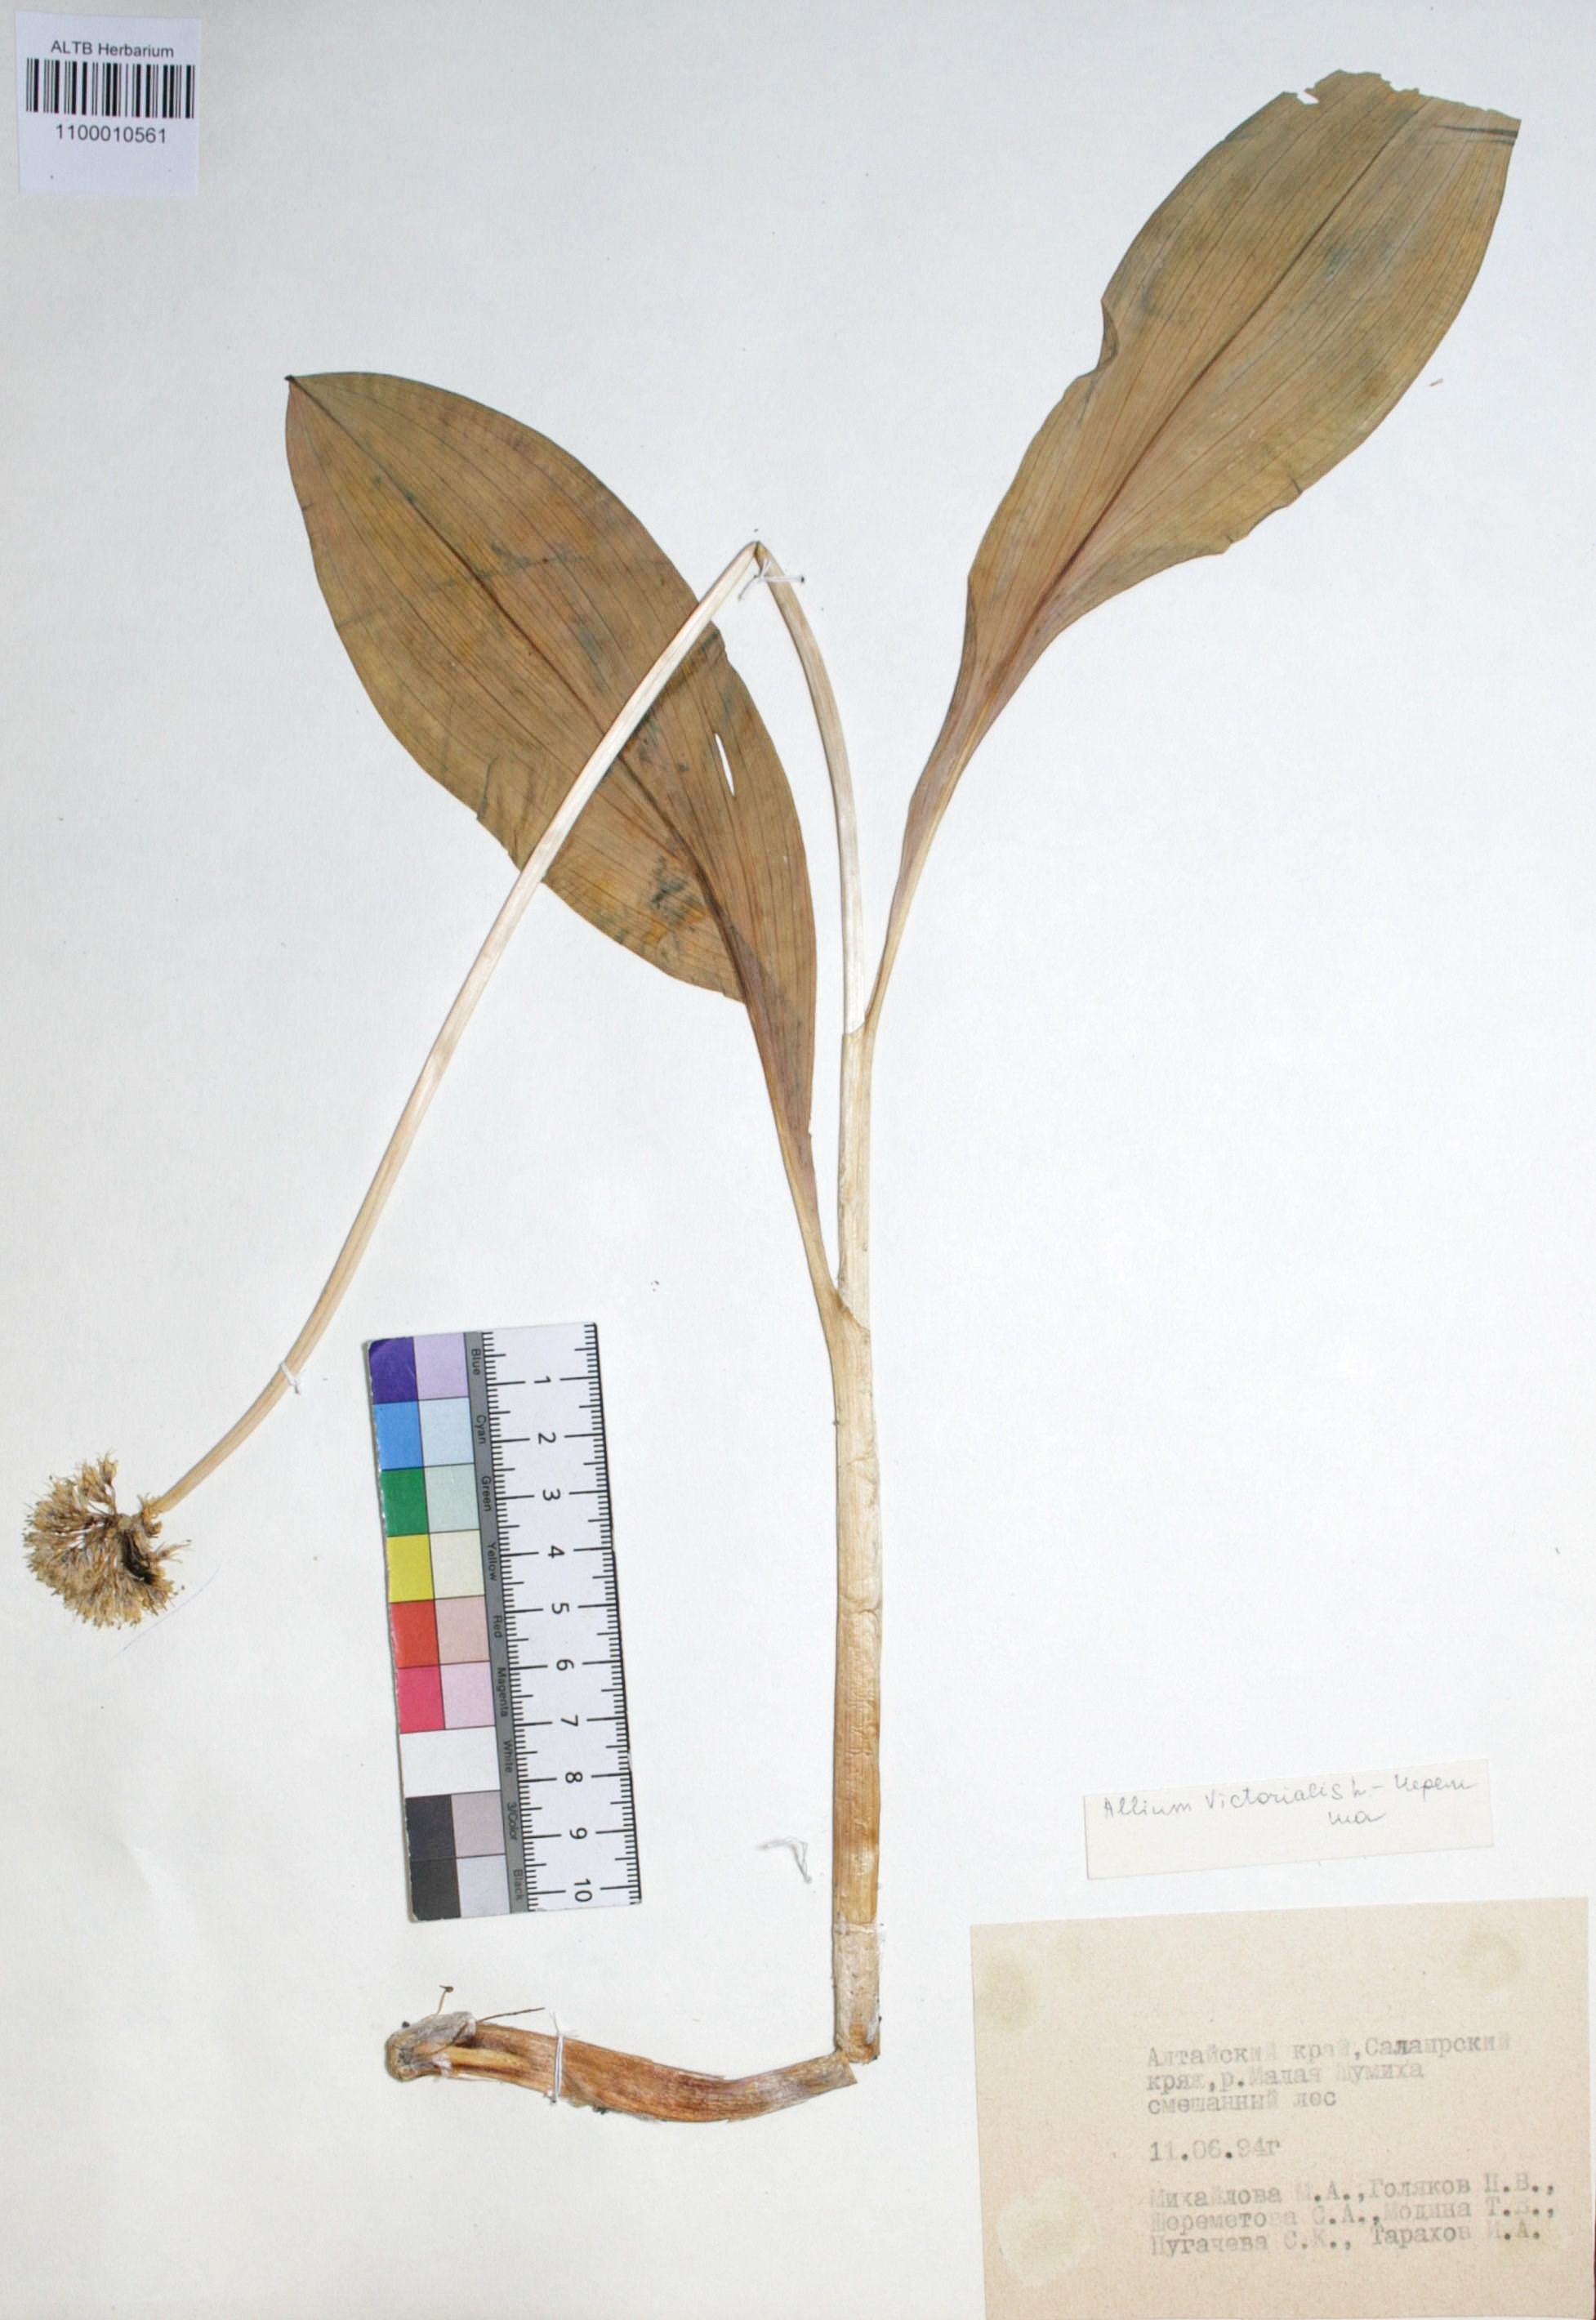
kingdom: Plantae
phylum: Tracheophyta
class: Liliopsida
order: Asparagales
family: Amaryllidaceae
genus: Allium
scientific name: Allium victorialis
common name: Alpine leek
